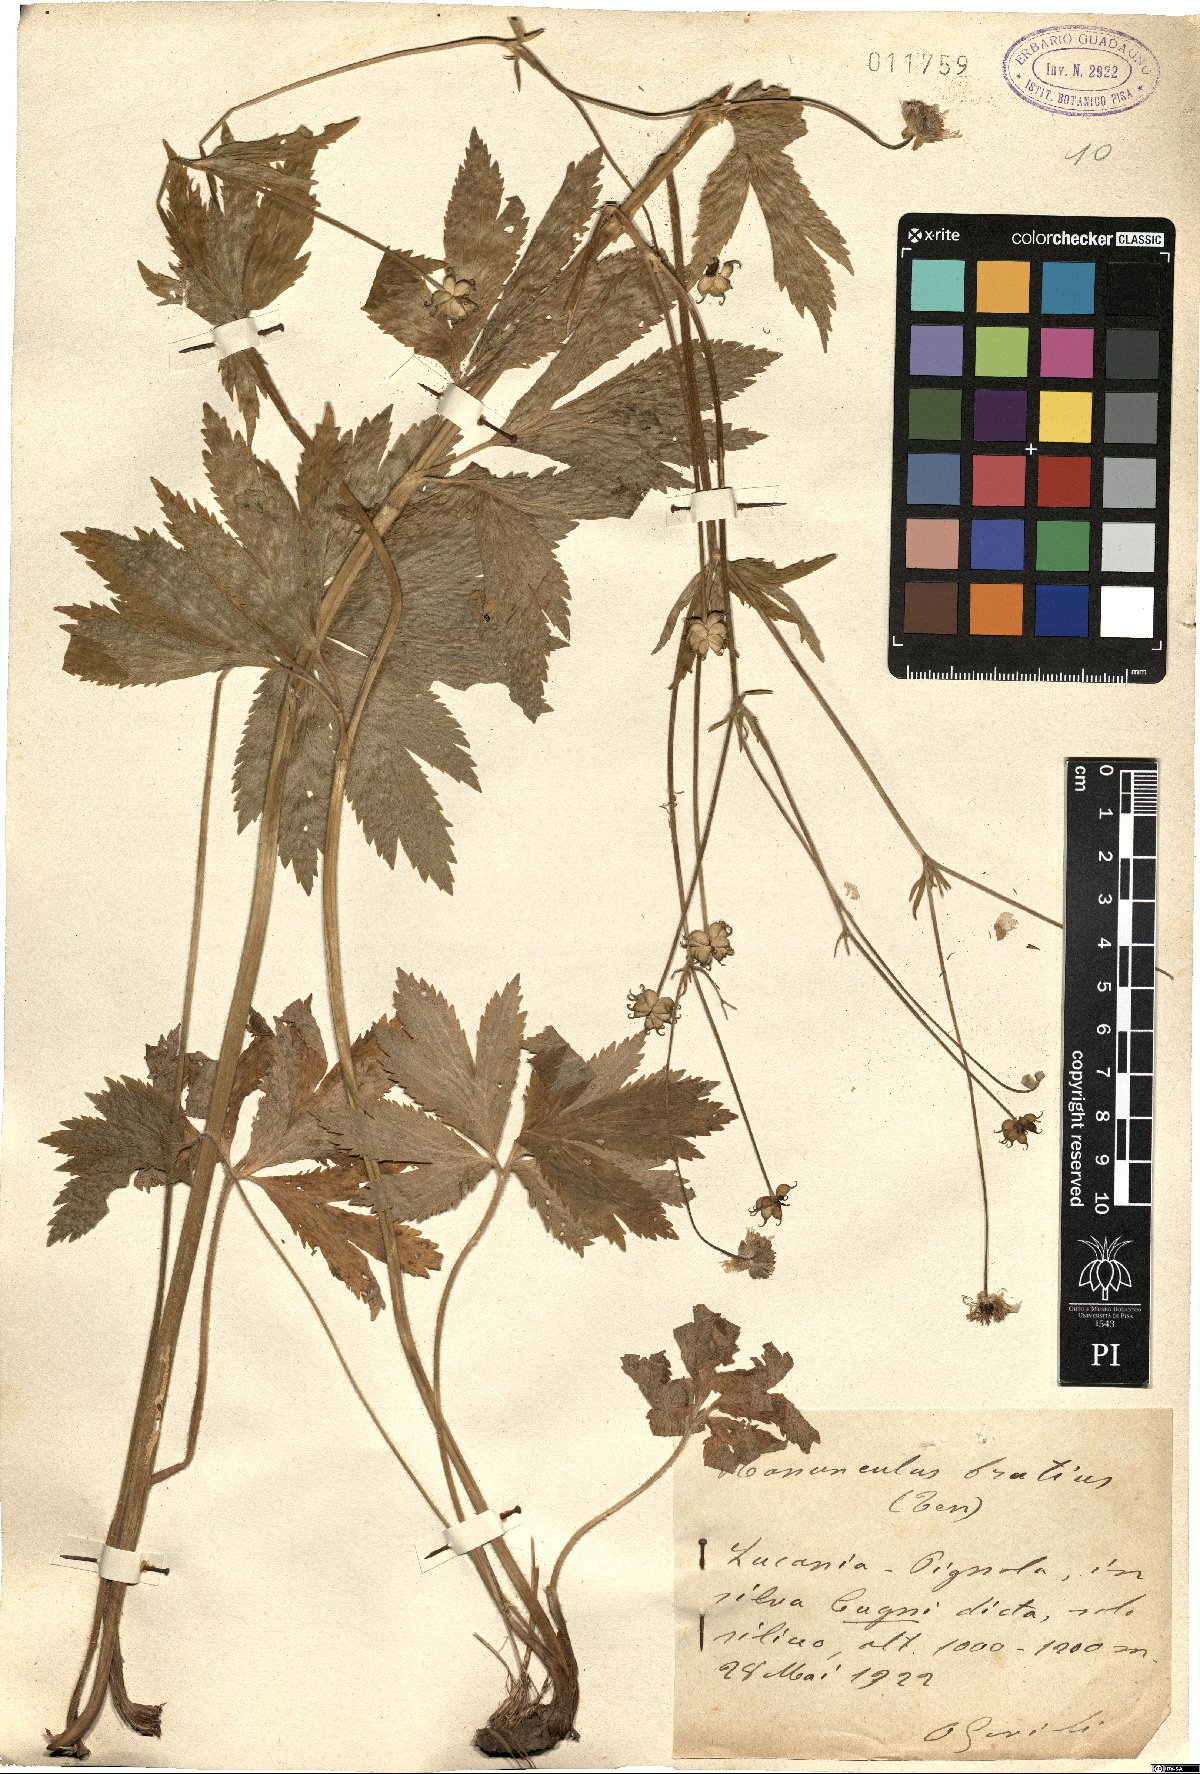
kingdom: Plantae
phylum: Tracheophyta
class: Magnoliopsida
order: Ranunculales
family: Ranunculaceae
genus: Ranunculus
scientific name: Ranunculus brutius
